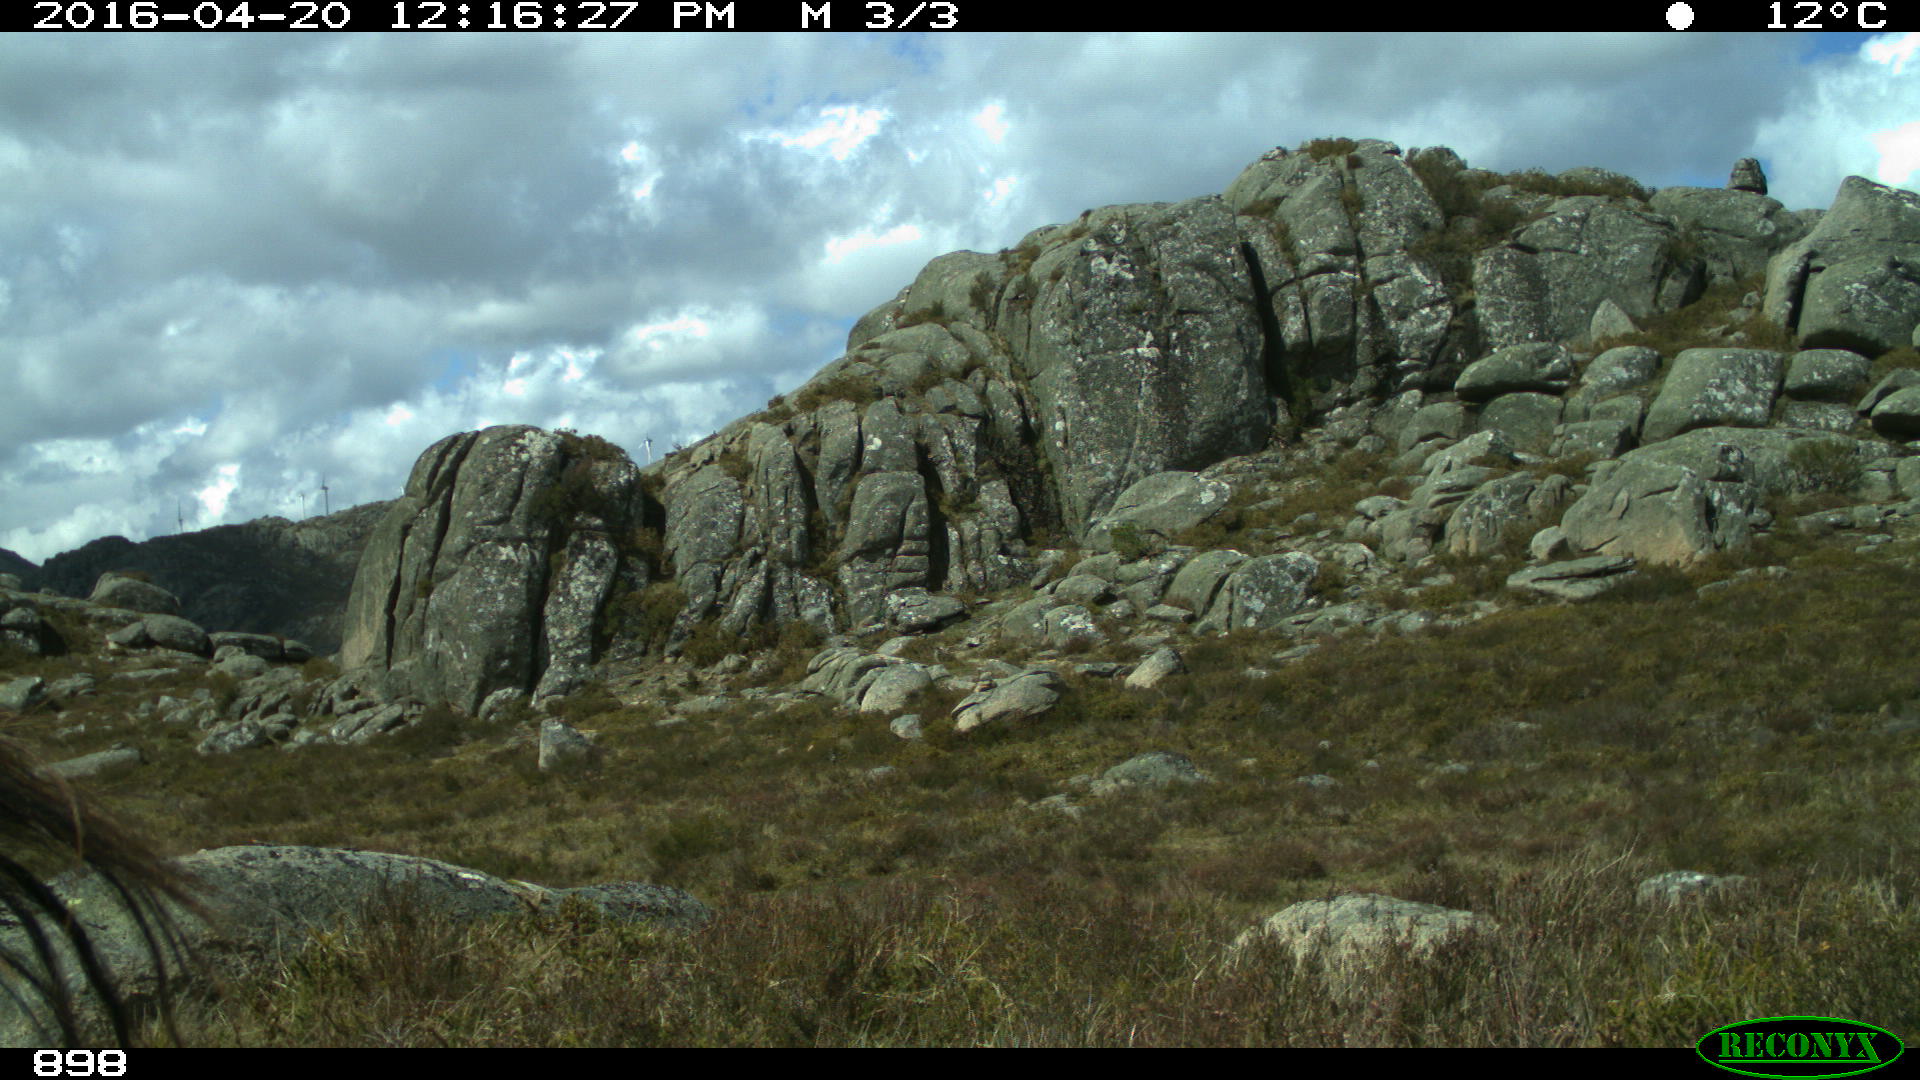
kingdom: Animalia
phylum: Chordata
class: Mammalia
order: Perissodactyla
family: Equidae
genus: Equus
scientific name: Equus caballus
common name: Horse
